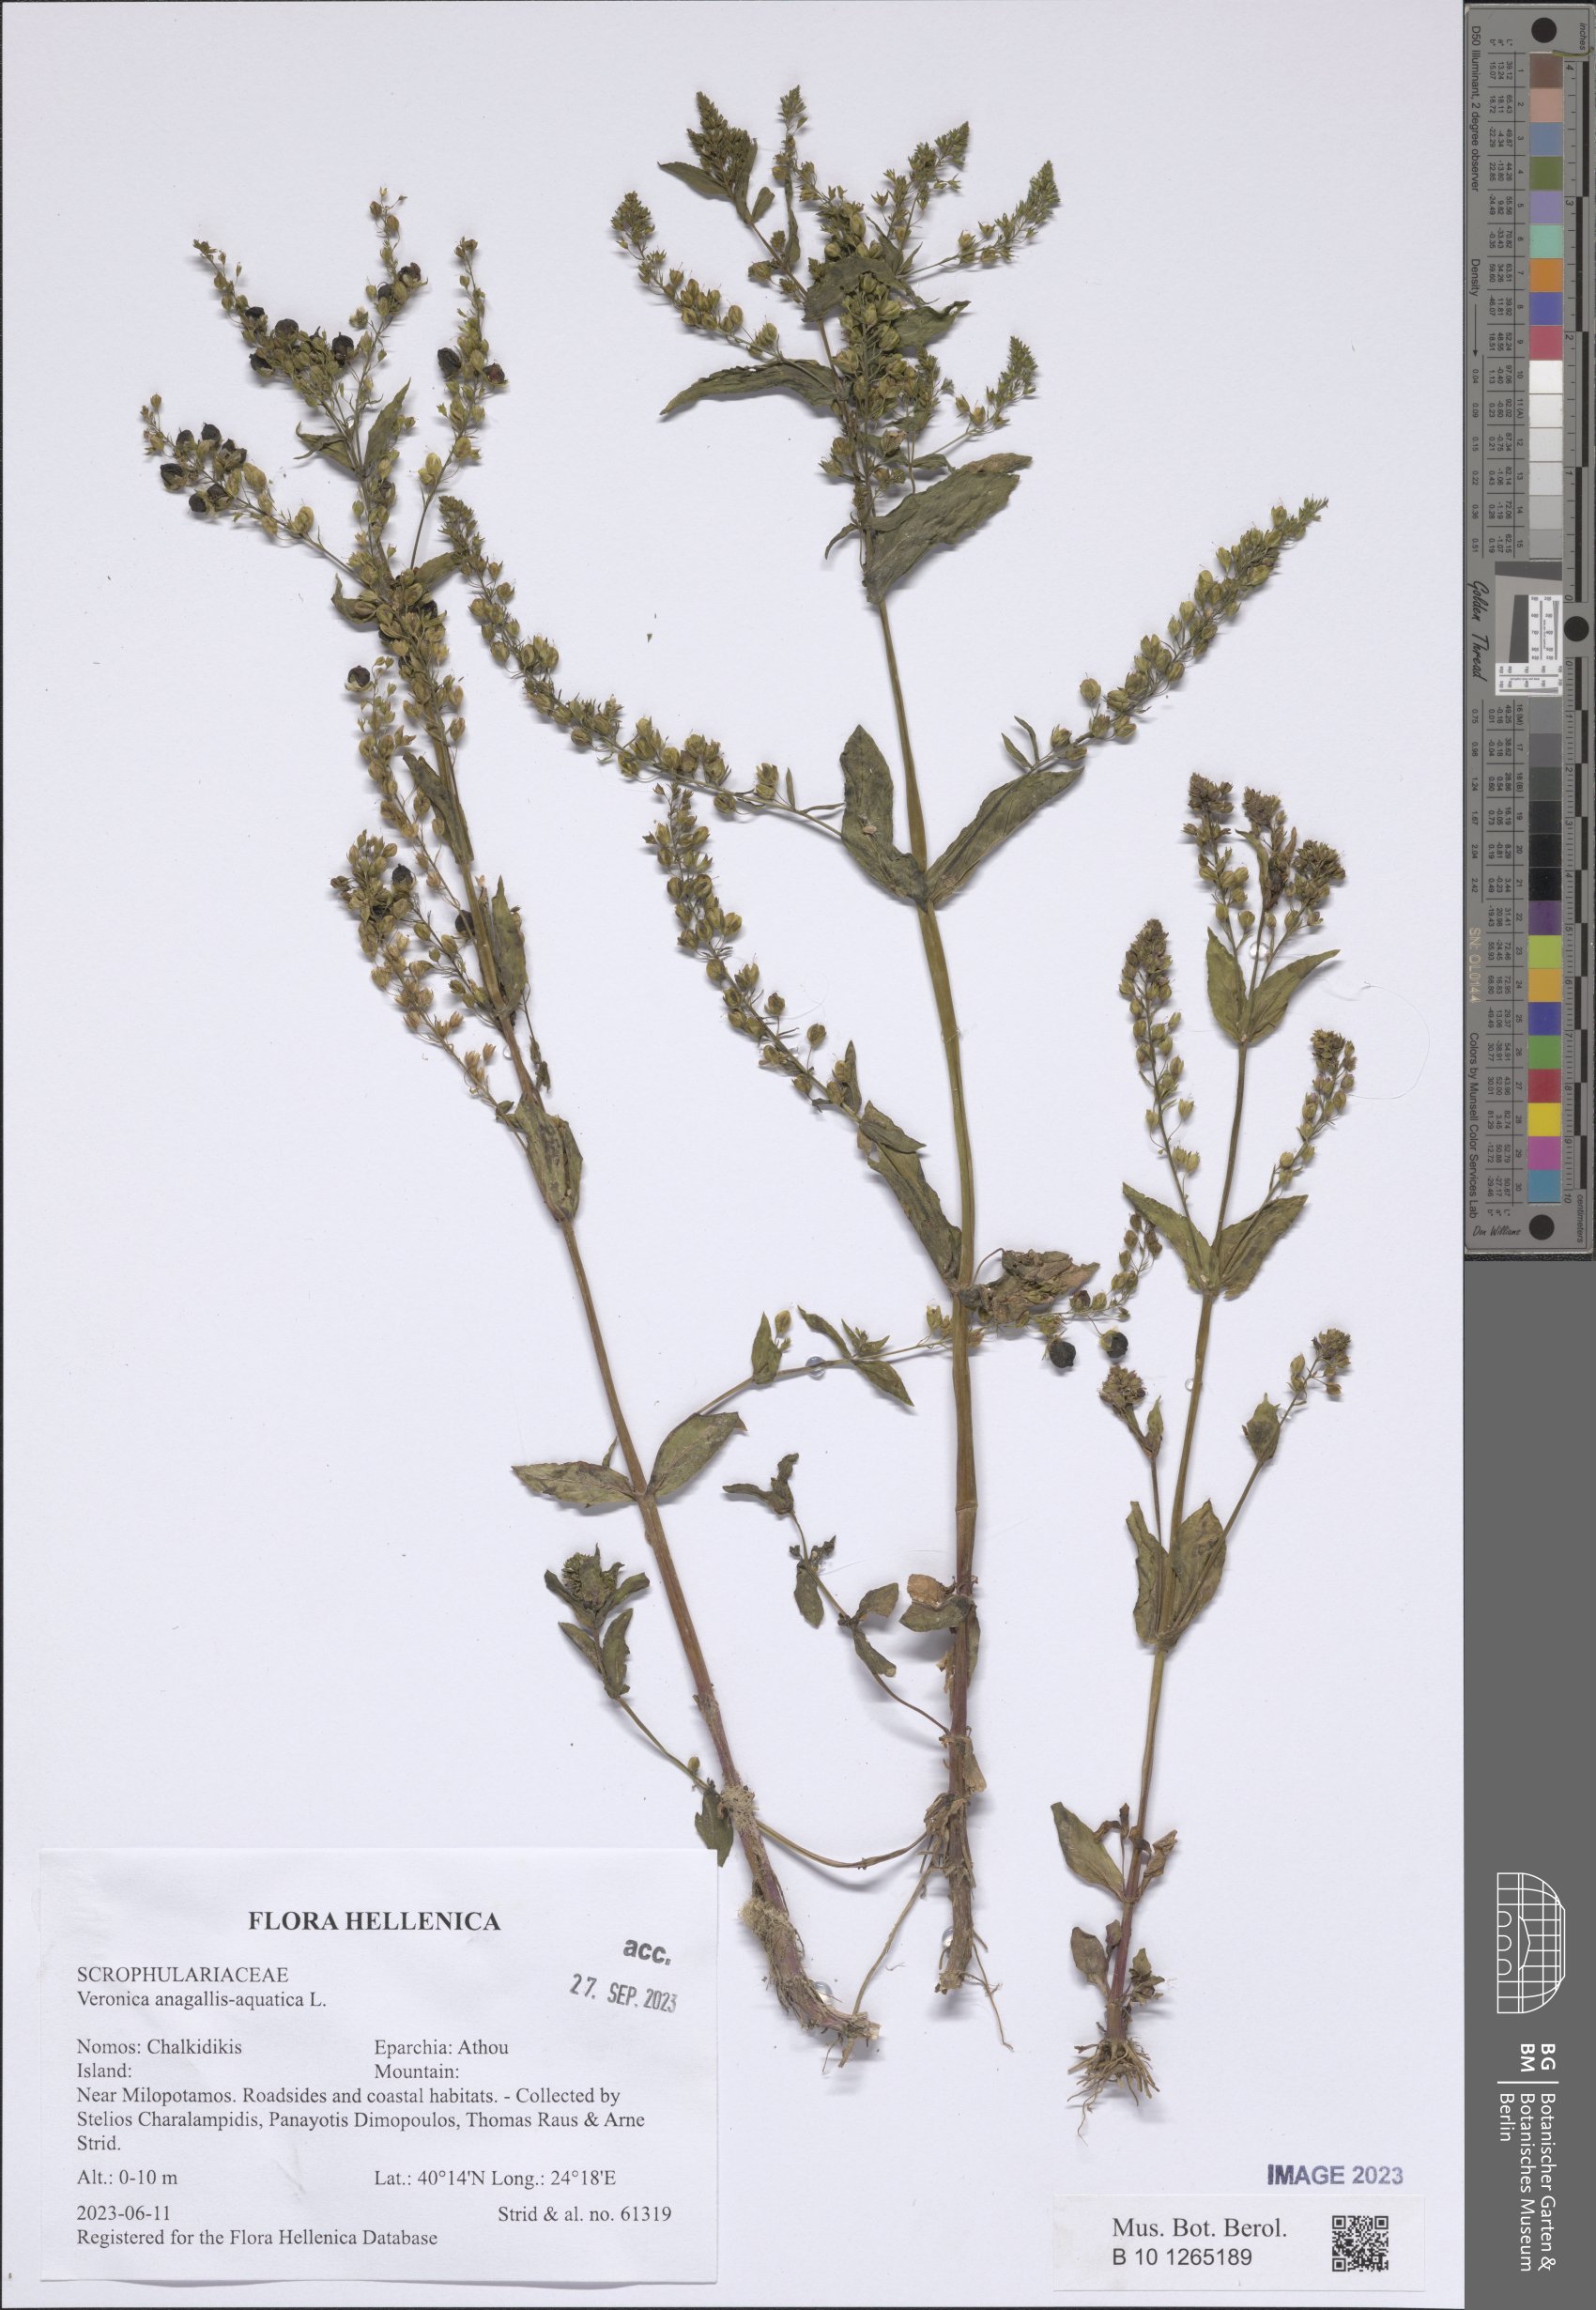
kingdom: Plantae
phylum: Tracheophyta
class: Magnoliopsida
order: Lamiales
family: Plantaginaceae
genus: Veronica
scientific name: Veronica anagallis-aquatica
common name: Water speedwell
